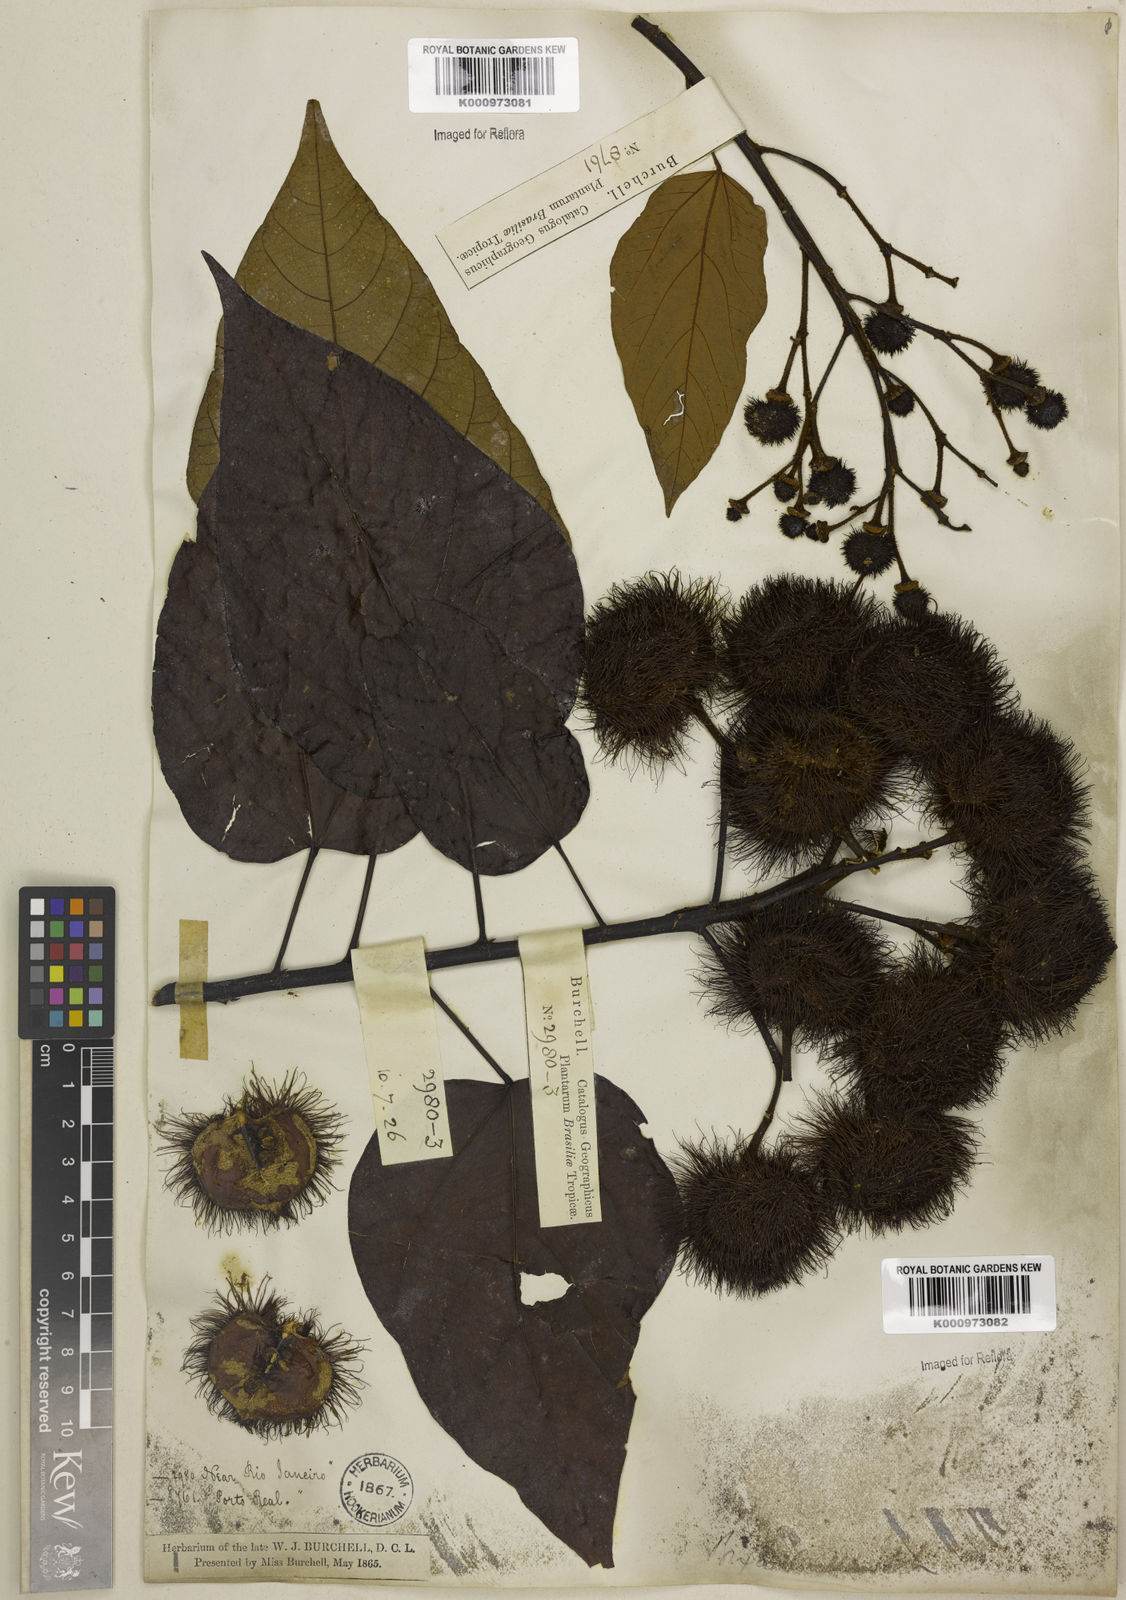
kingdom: Plantae
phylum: Tracheophyta
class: Magnoliopsida
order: Malvales
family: Bixaceae
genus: Bixa
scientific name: Bixa excelsa
